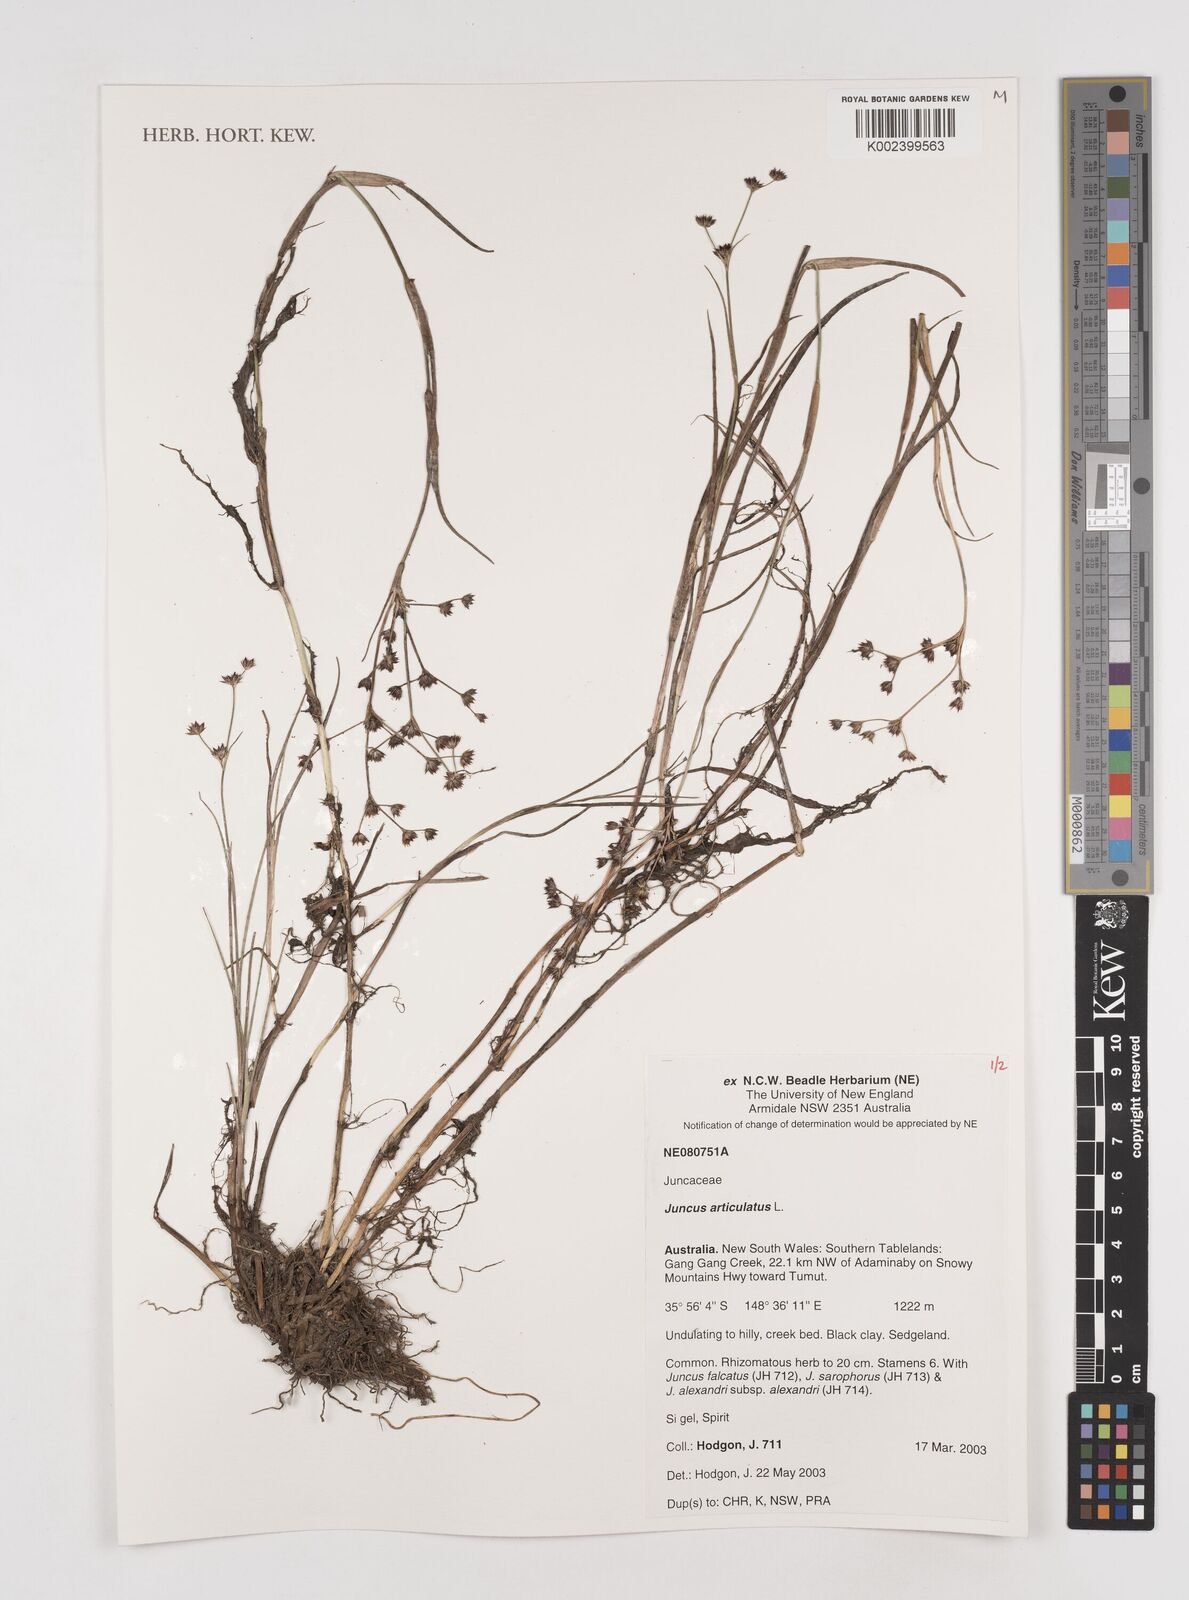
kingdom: Plantae
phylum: Tracheophyta
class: Liliopsida
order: Poales
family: Juncaceae
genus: Juncus
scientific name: Juncus articulatus
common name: Jointed rush
